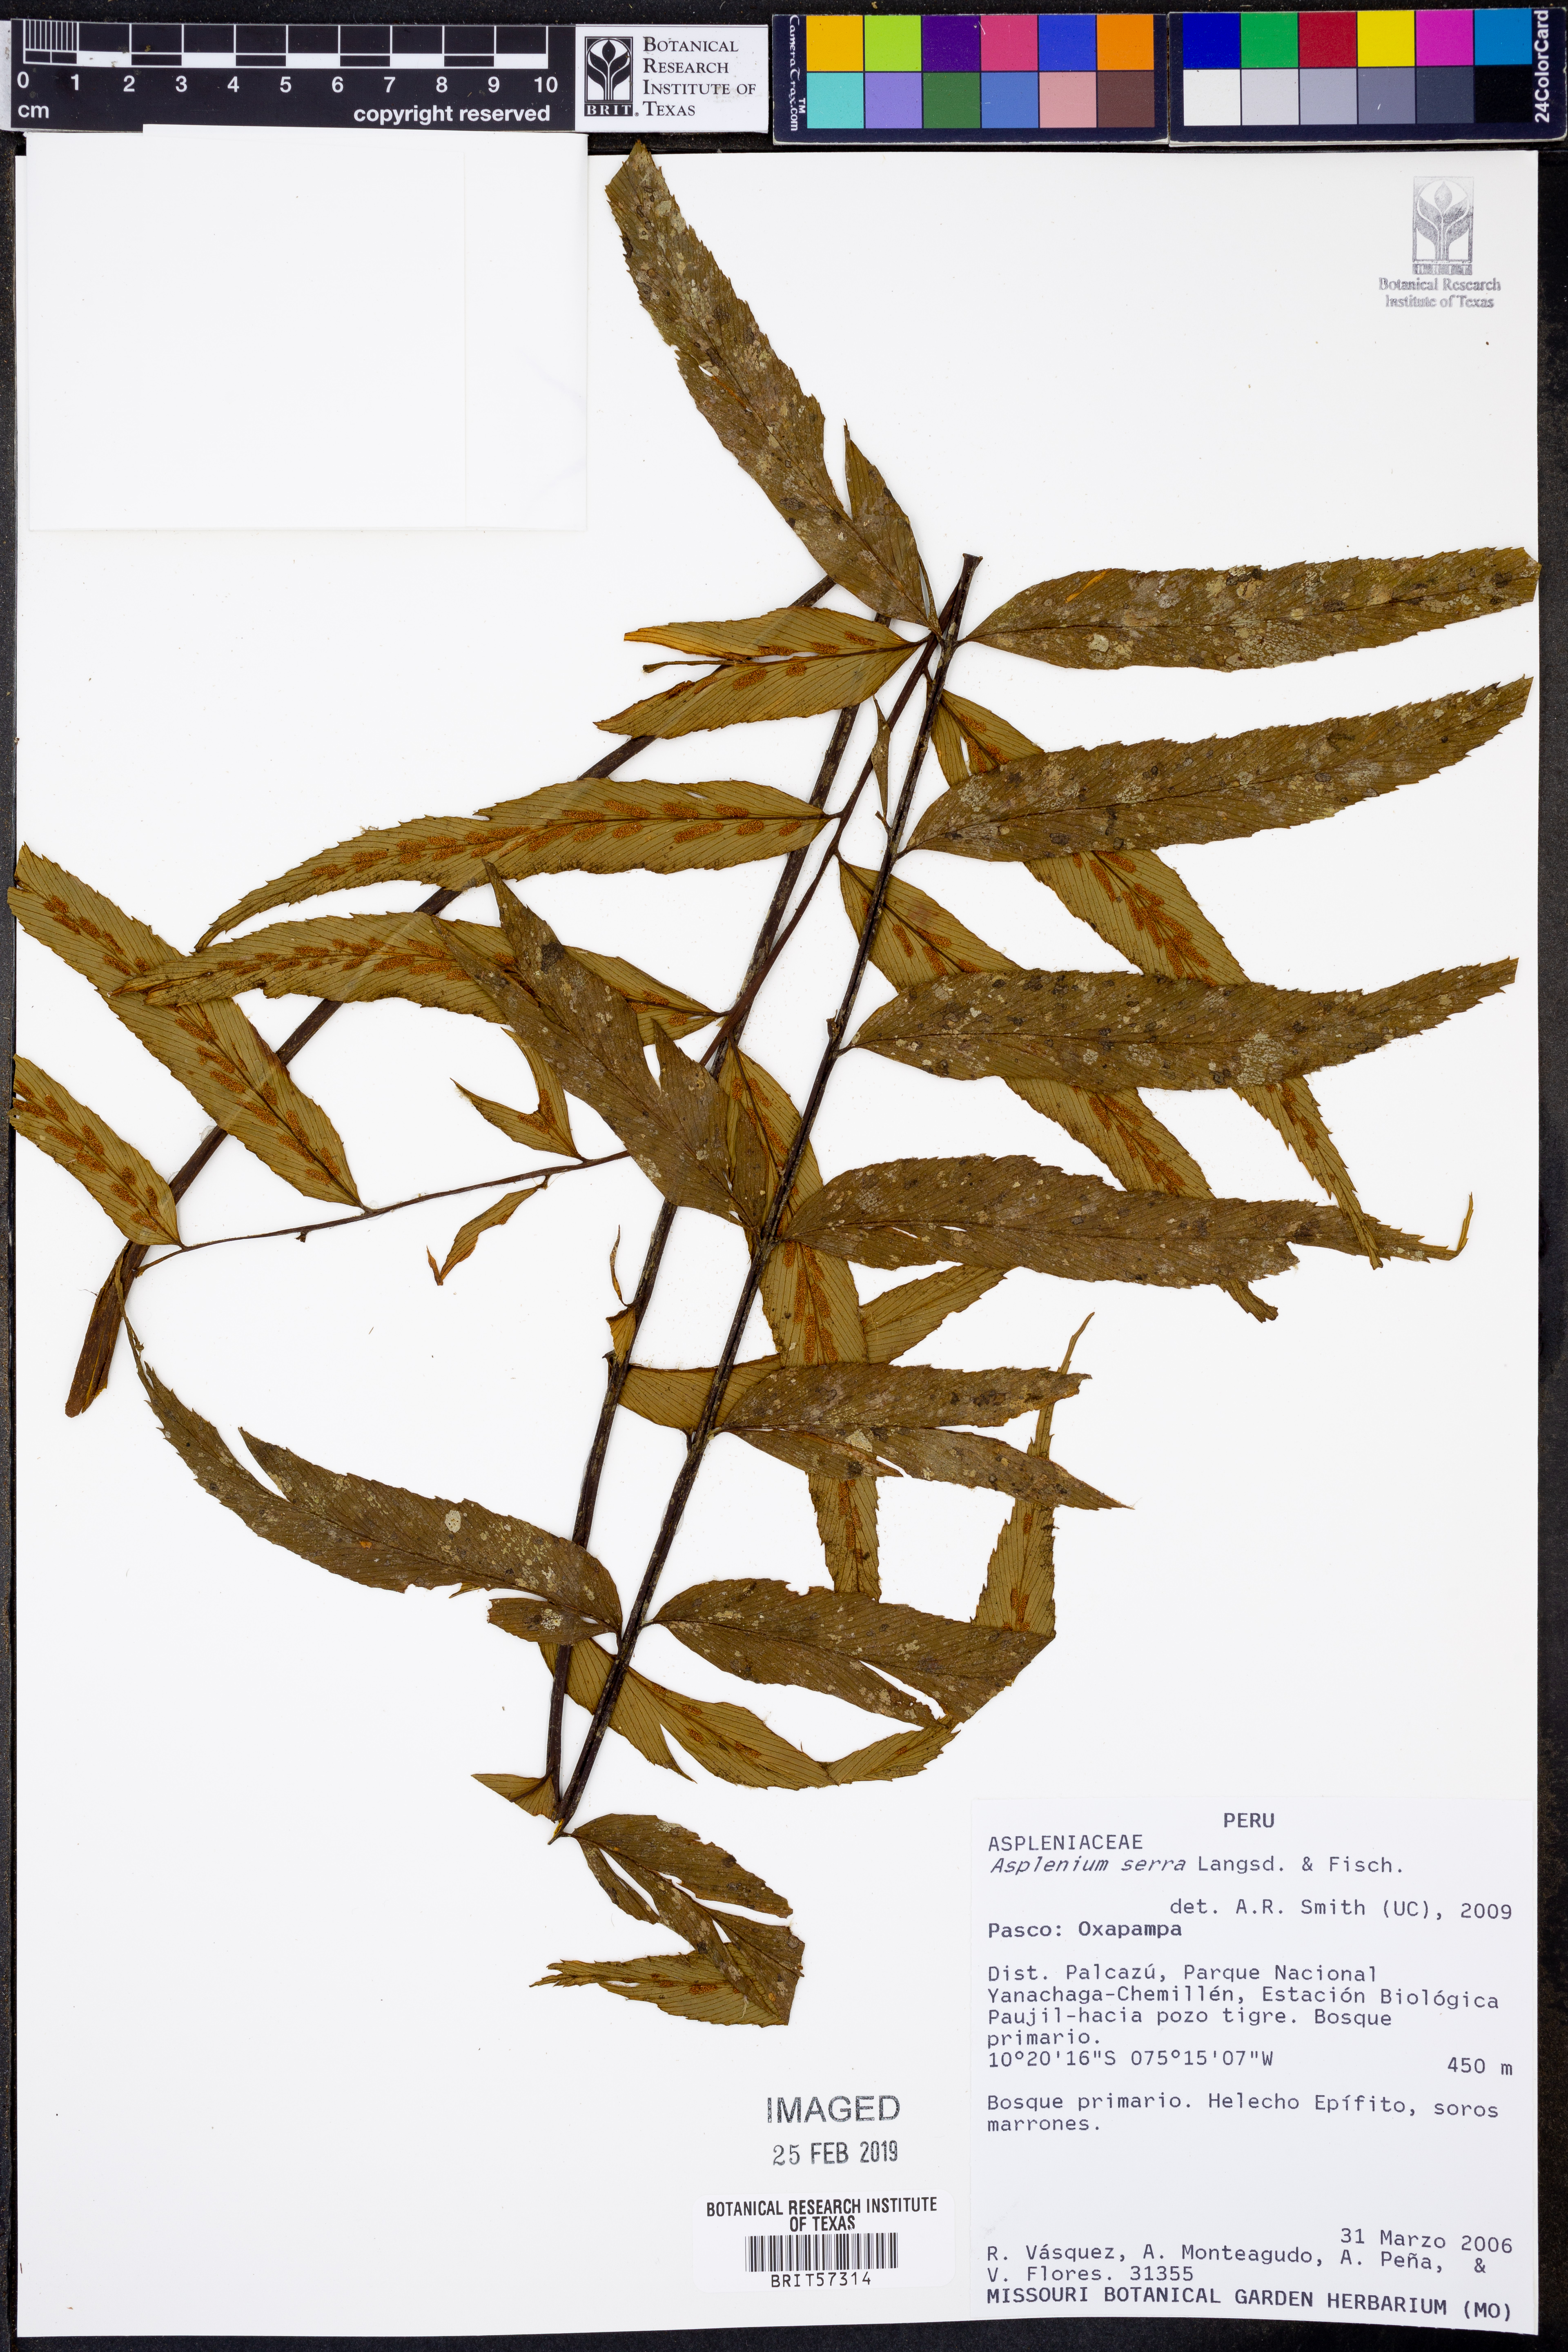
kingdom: Plantae
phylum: Tracheophyta
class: Polypodiopsida
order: Polypodiales
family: Aspleniaceae
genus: Asplenium
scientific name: Asplenium serra
